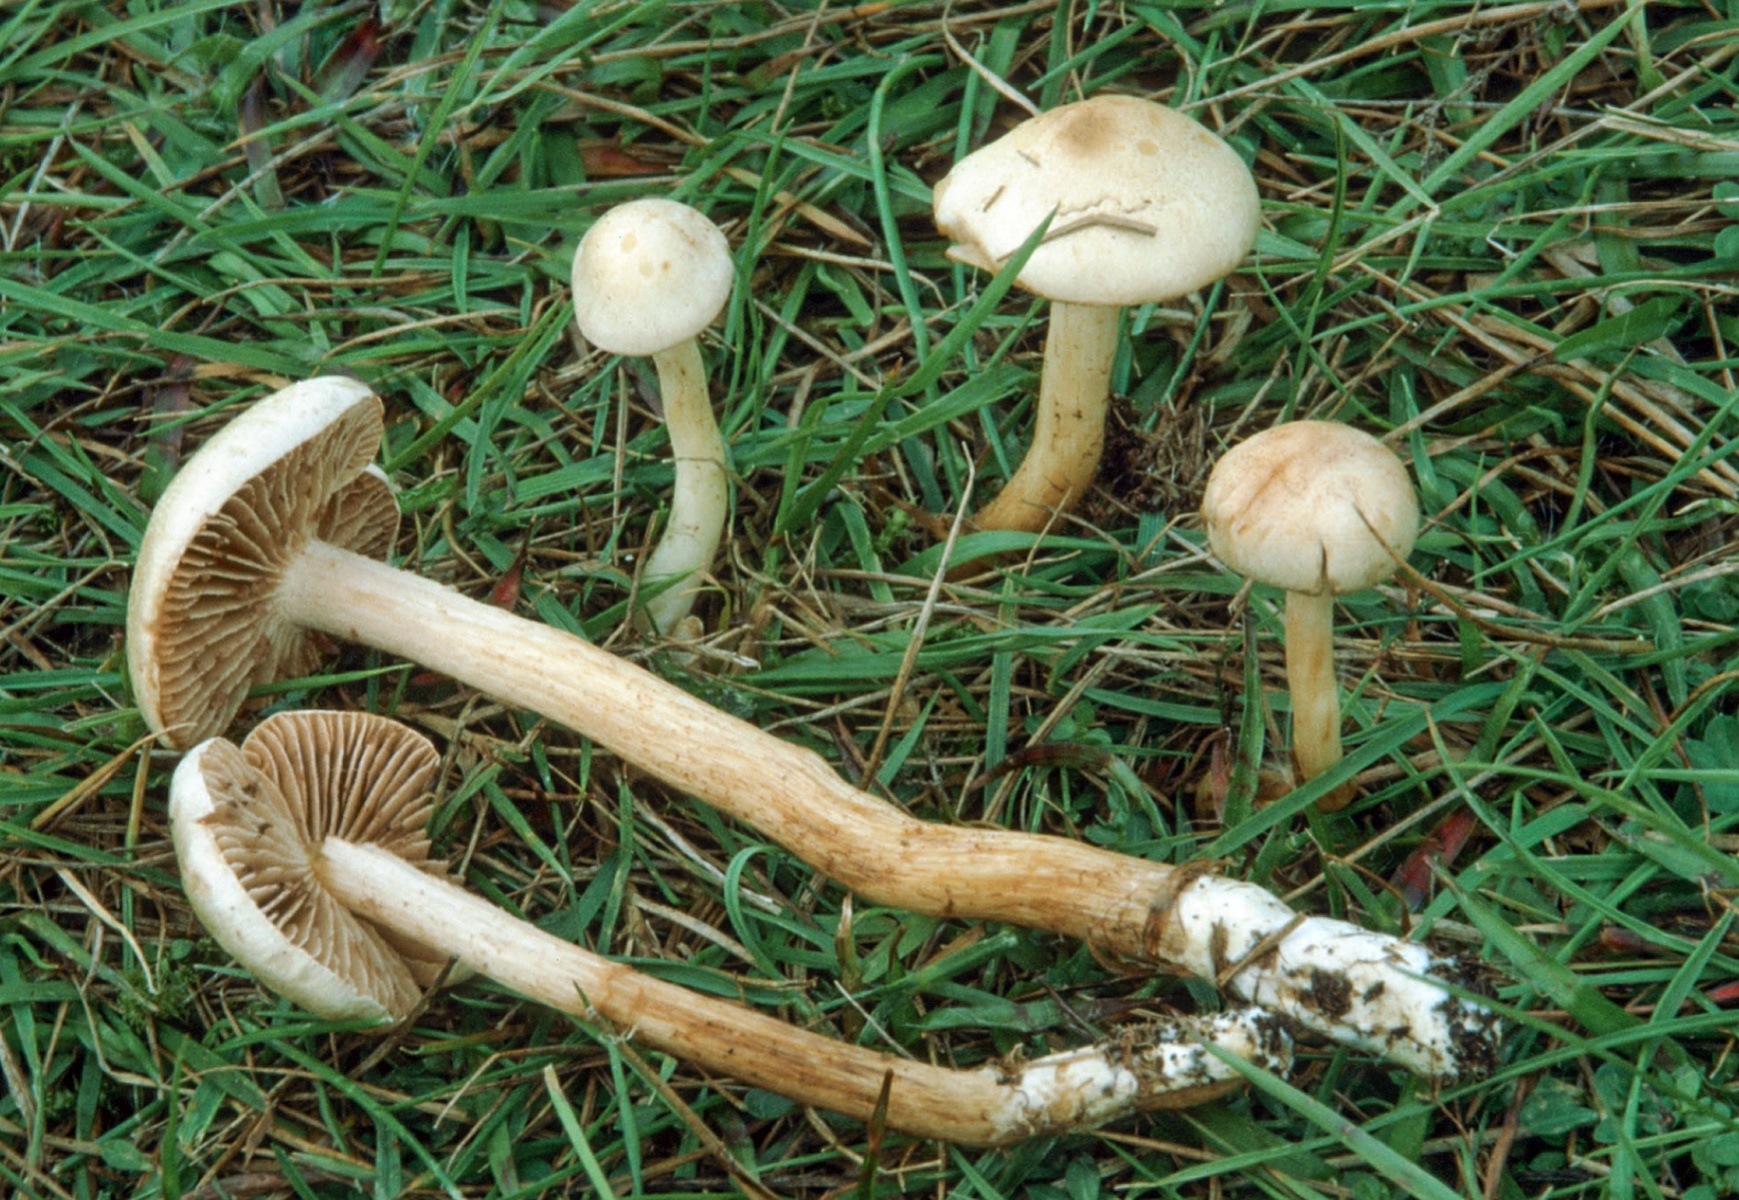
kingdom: Fungi
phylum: Basidiomycota
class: Agaricomycetes
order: Agaricales
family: Hymenogastraceae
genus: Hebeloma
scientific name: Hebeloma fusisporum
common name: kandis-tåreblad
